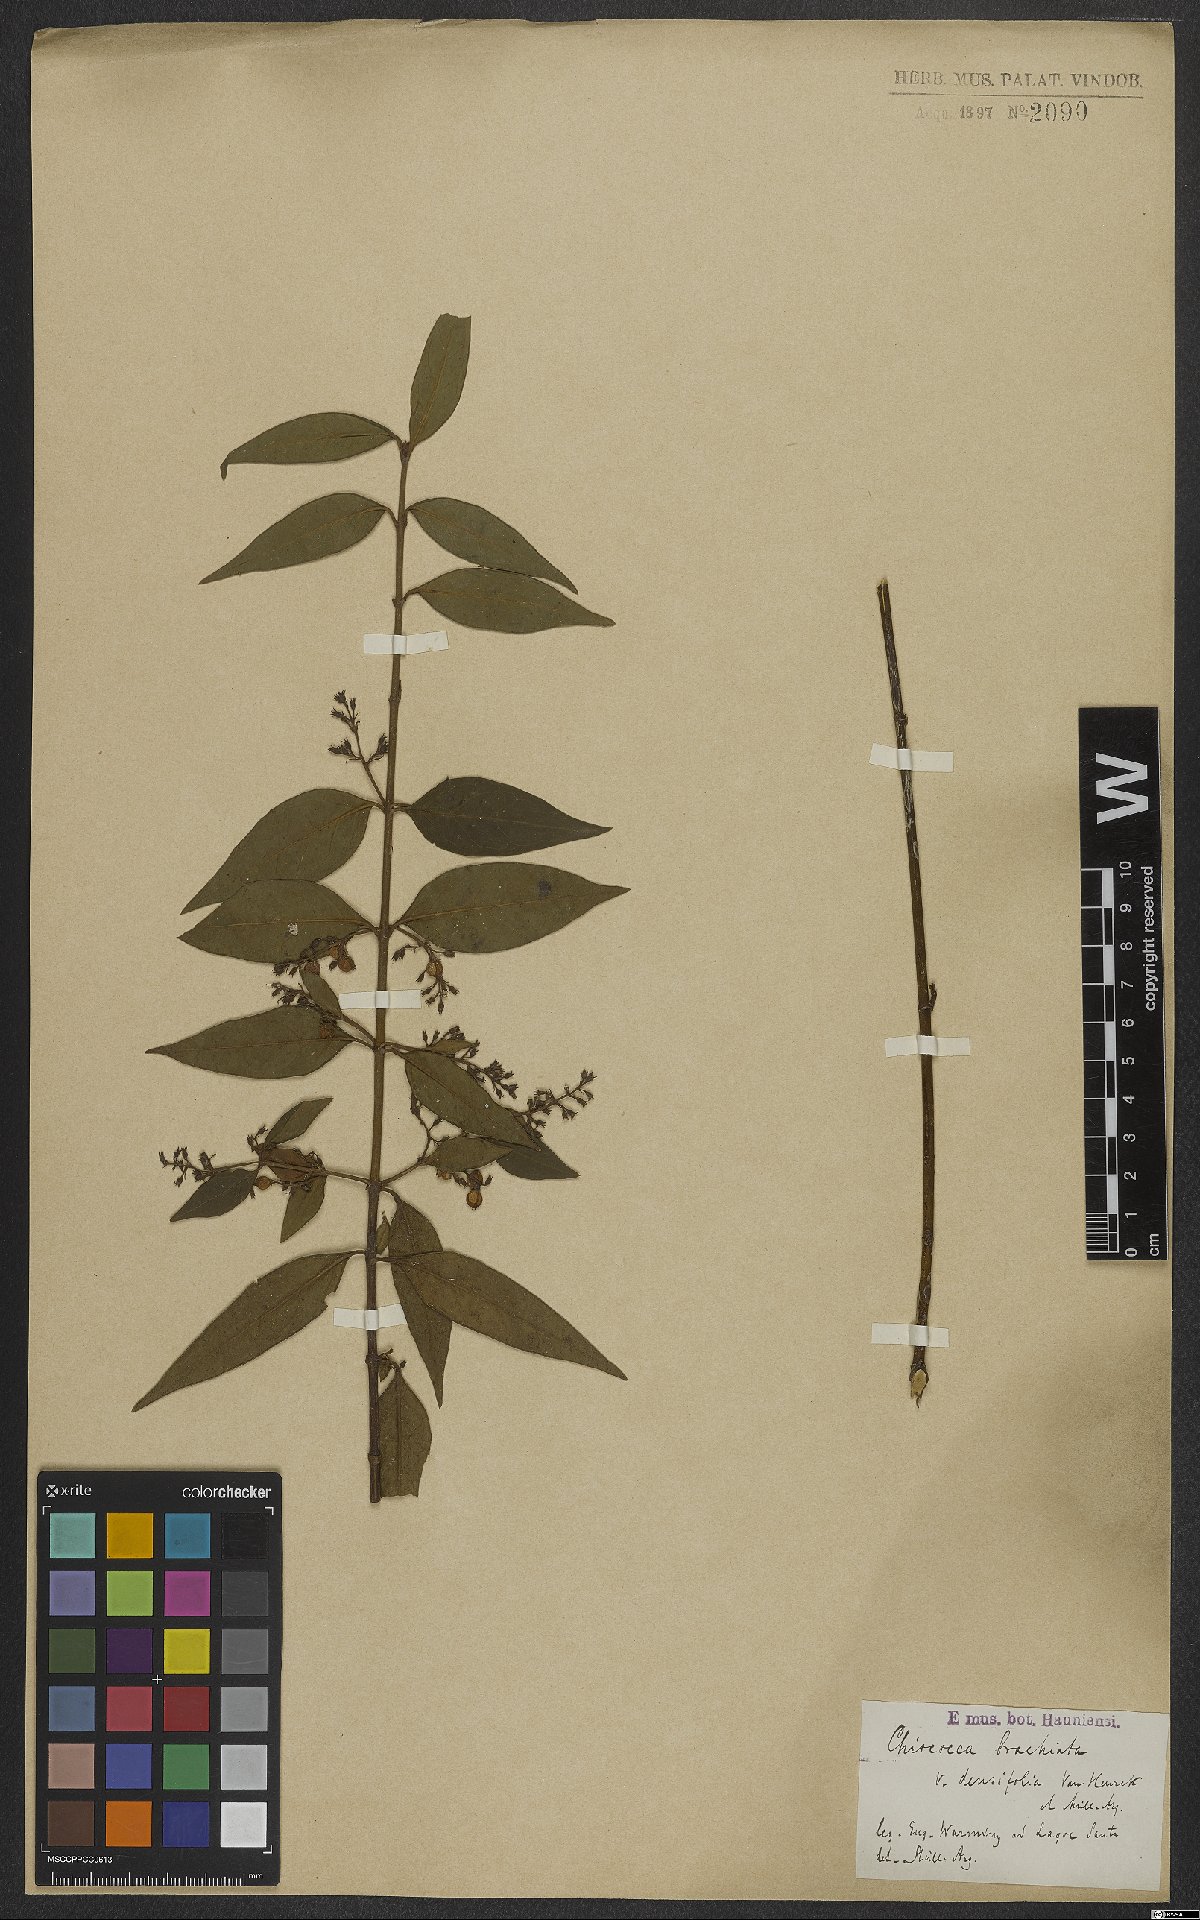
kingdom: Plantae
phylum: Tracheophyta
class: Magnoliopsida
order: Gentianales
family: Rubiaceae
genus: Chiococca
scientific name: Chiococca alba
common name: Snowberry
